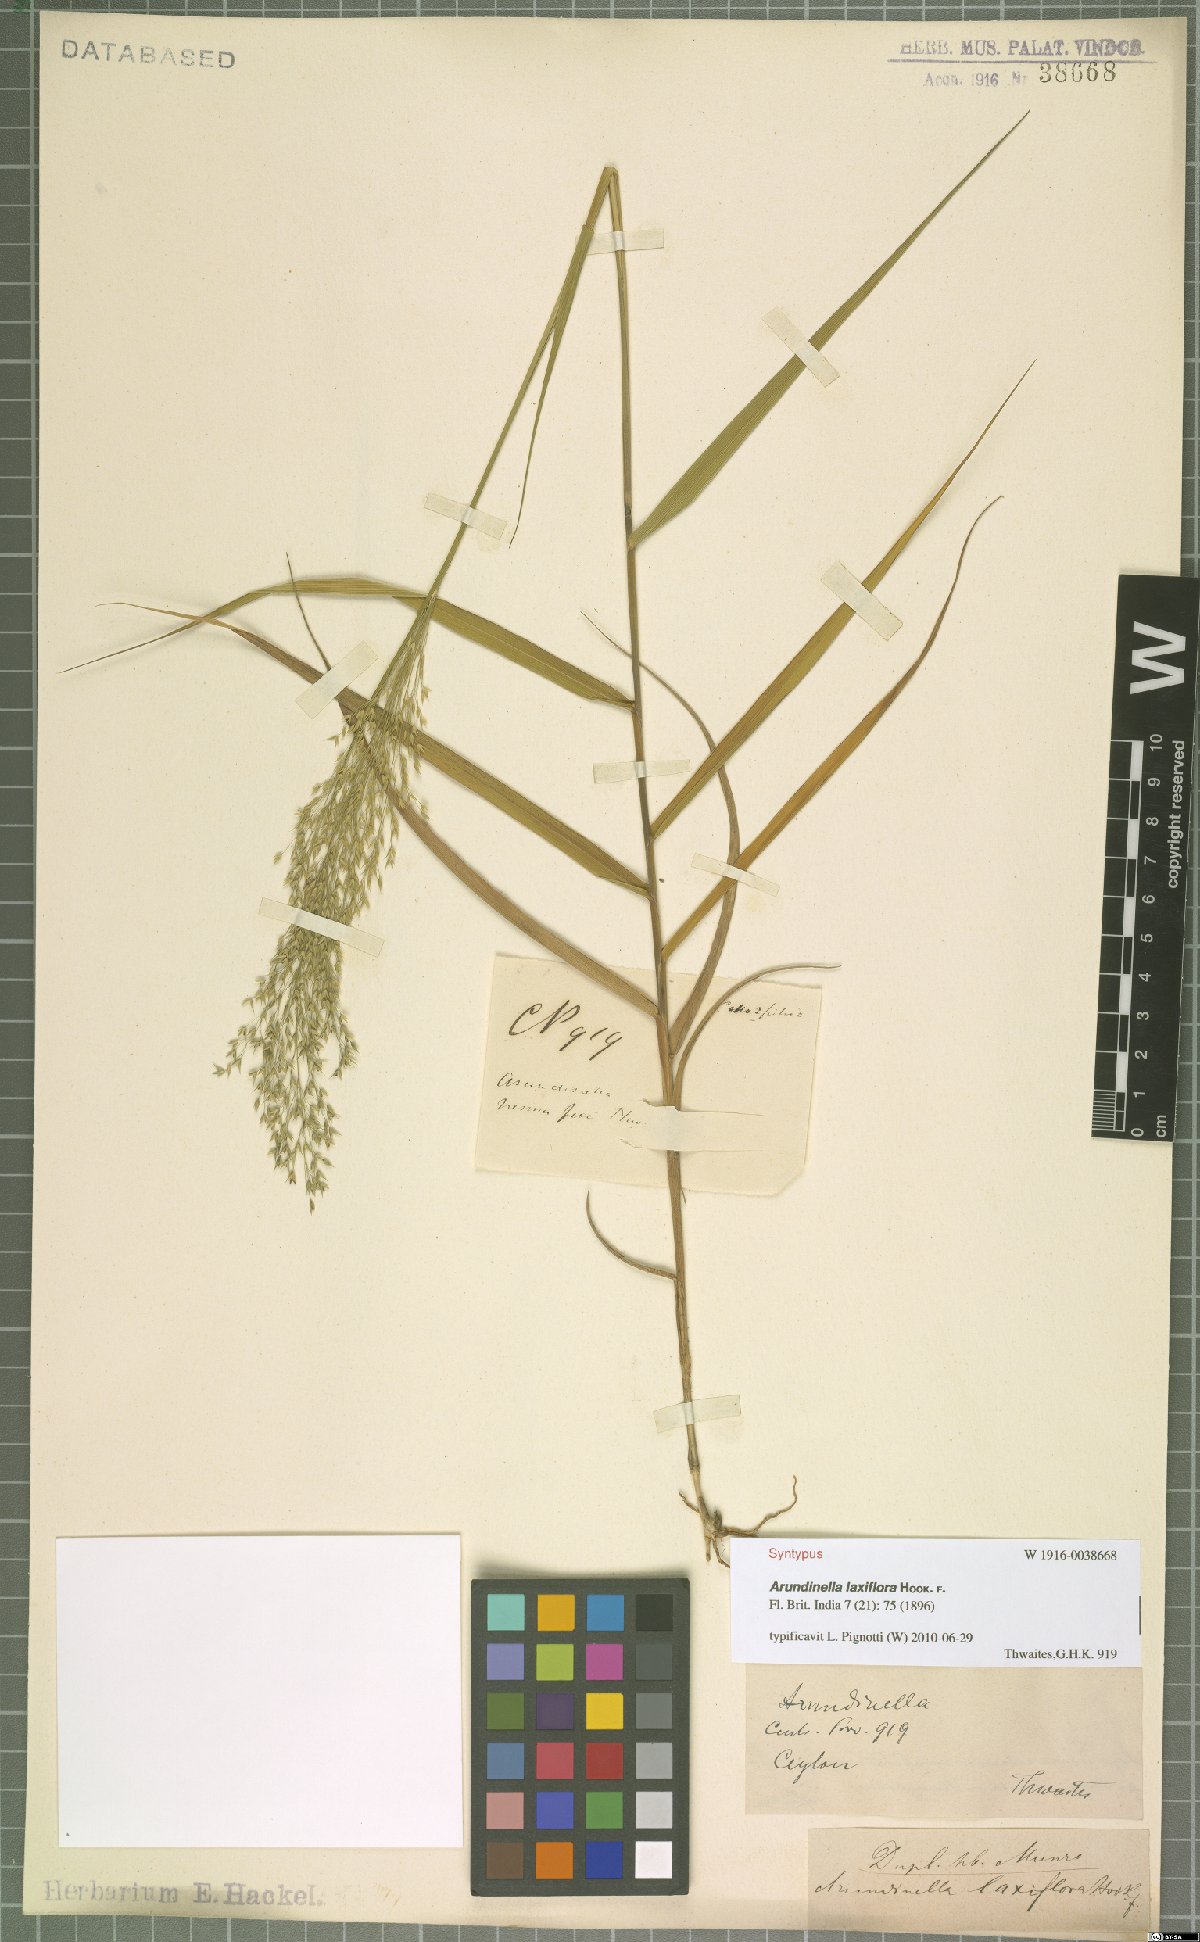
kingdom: Plantae
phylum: Tracheophyta
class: Liliopsida
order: Poales
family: Poaceae
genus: Arundinella
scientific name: Arundinella laxiflora
